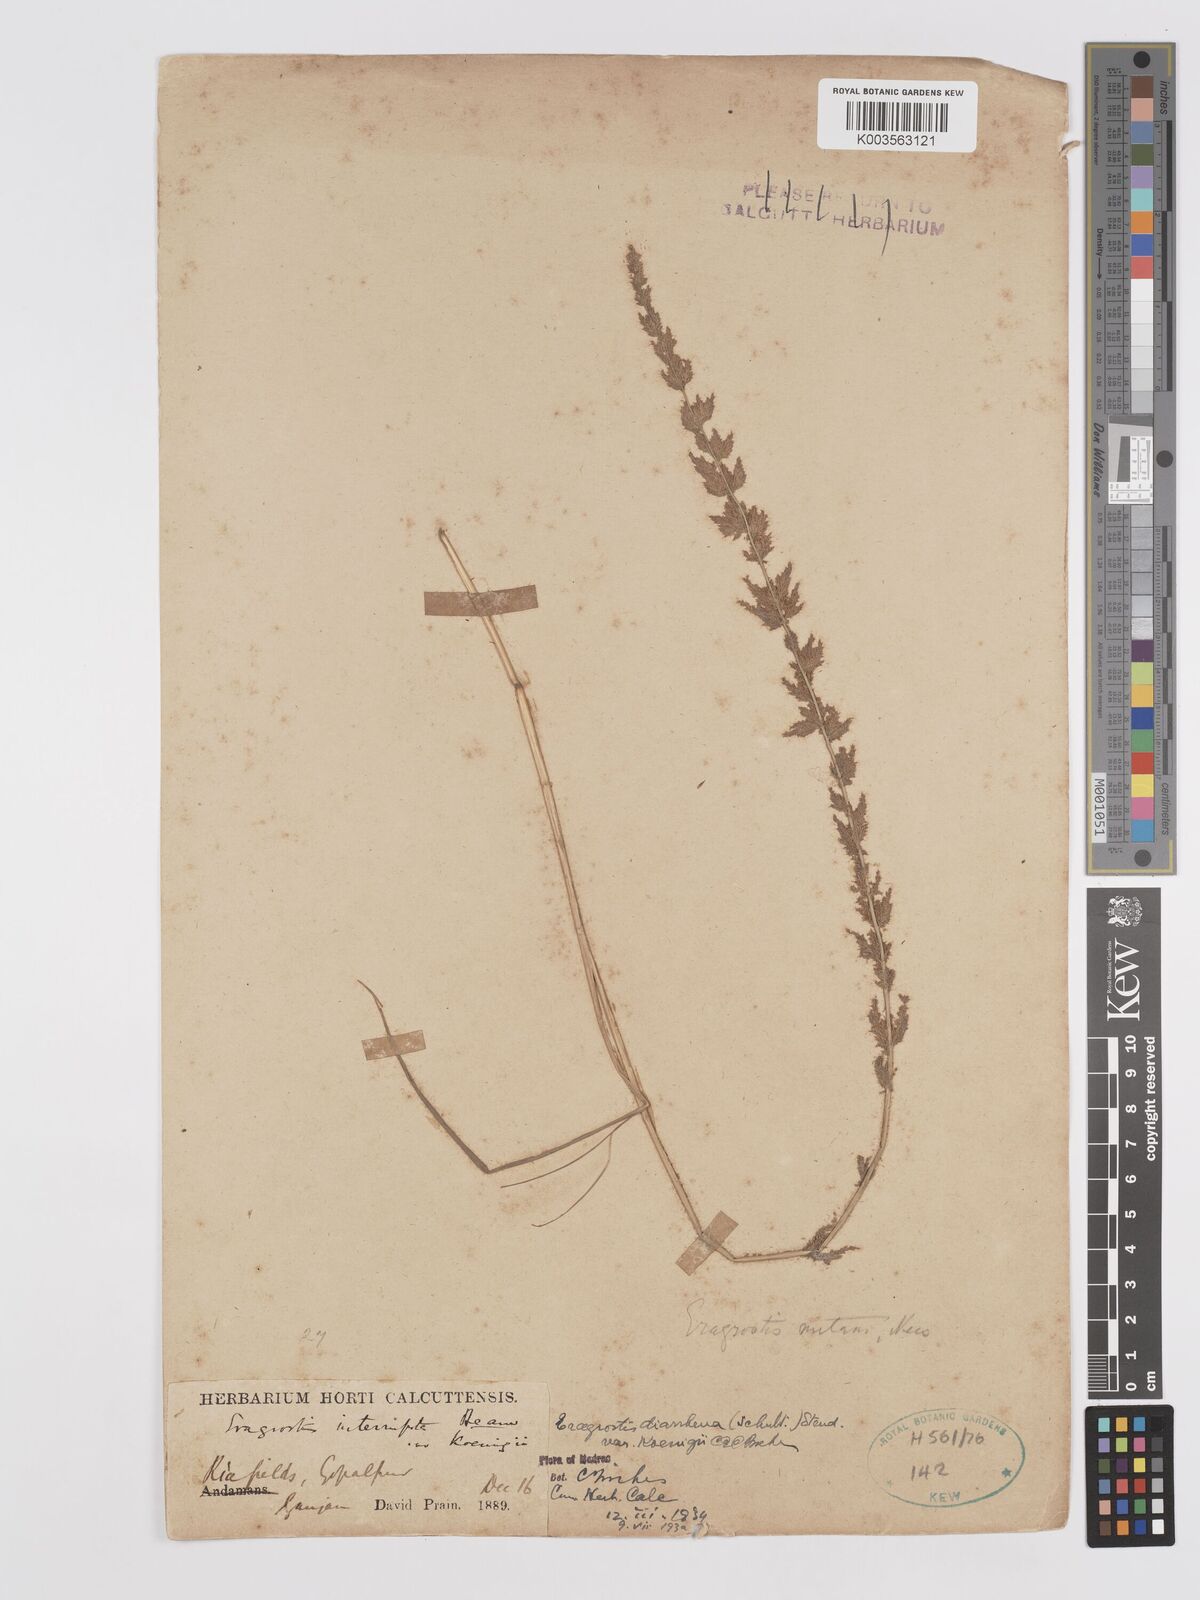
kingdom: Plantae
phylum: Tracheophyta
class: Liliopsida
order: Poales
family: Poaceae
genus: Eragrostis
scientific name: Eragrostis japonica
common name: Pond lovegrass
